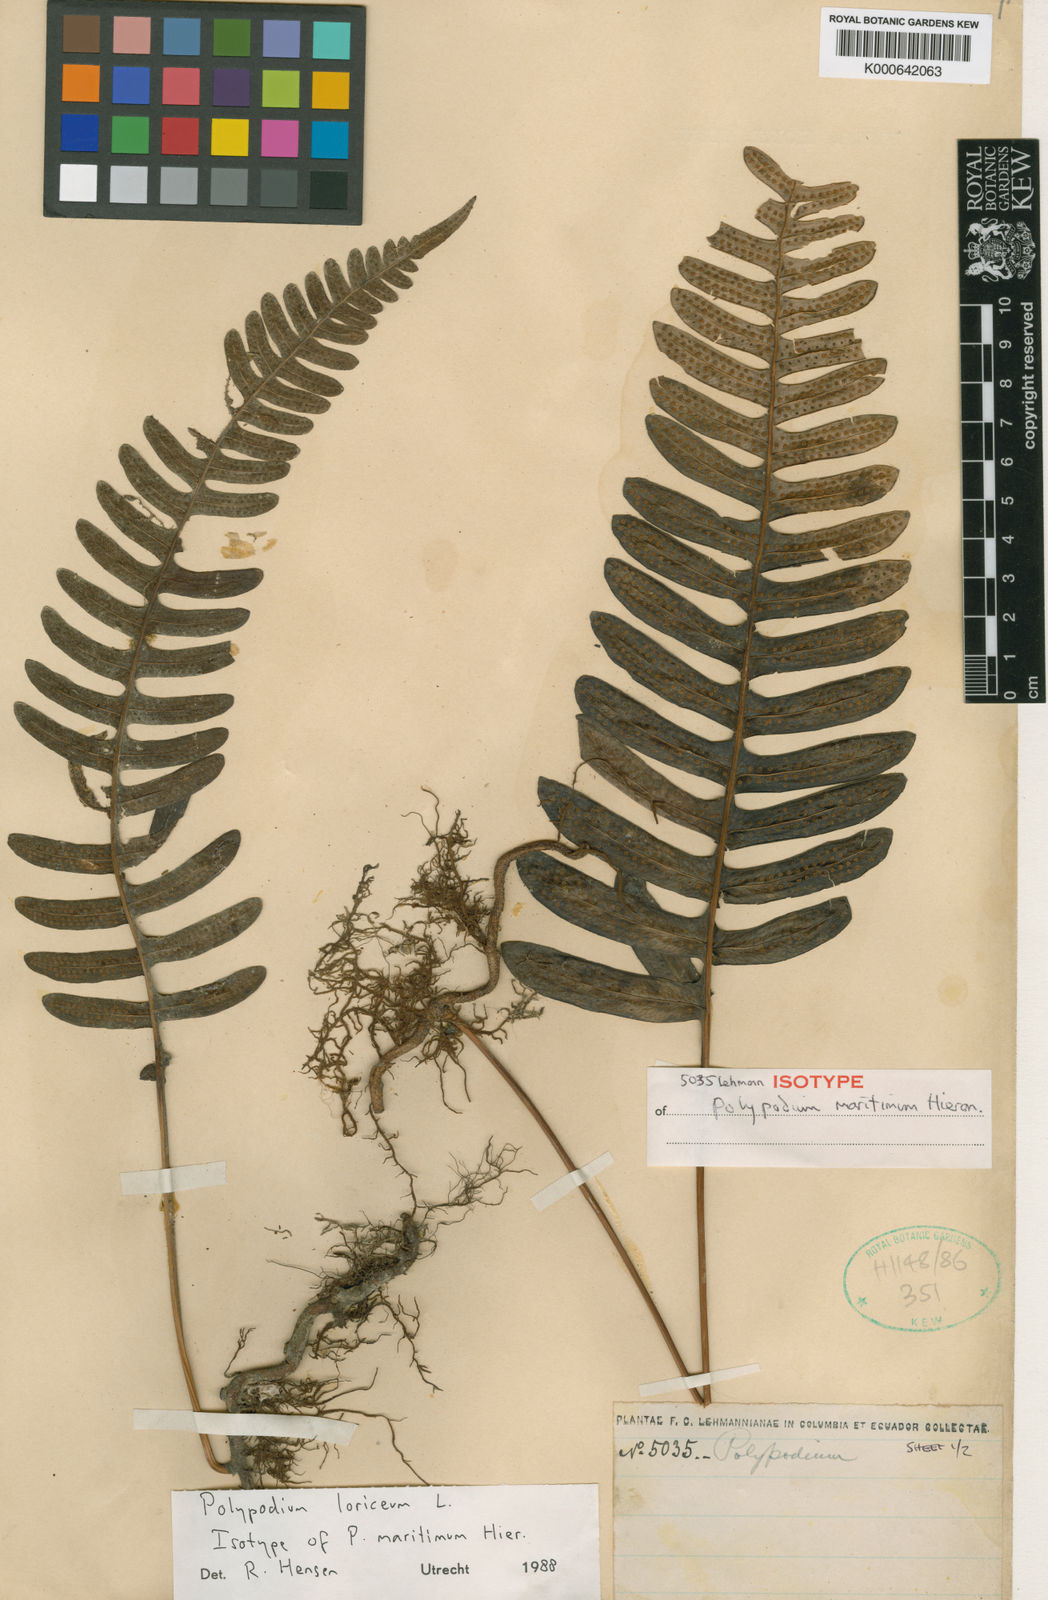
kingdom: Plantae
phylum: Tracheophyta
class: Polypodiopsida
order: Polypodiales
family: Polypodiaceae
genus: Serpocaulon
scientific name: Serpocaulon loriceum
